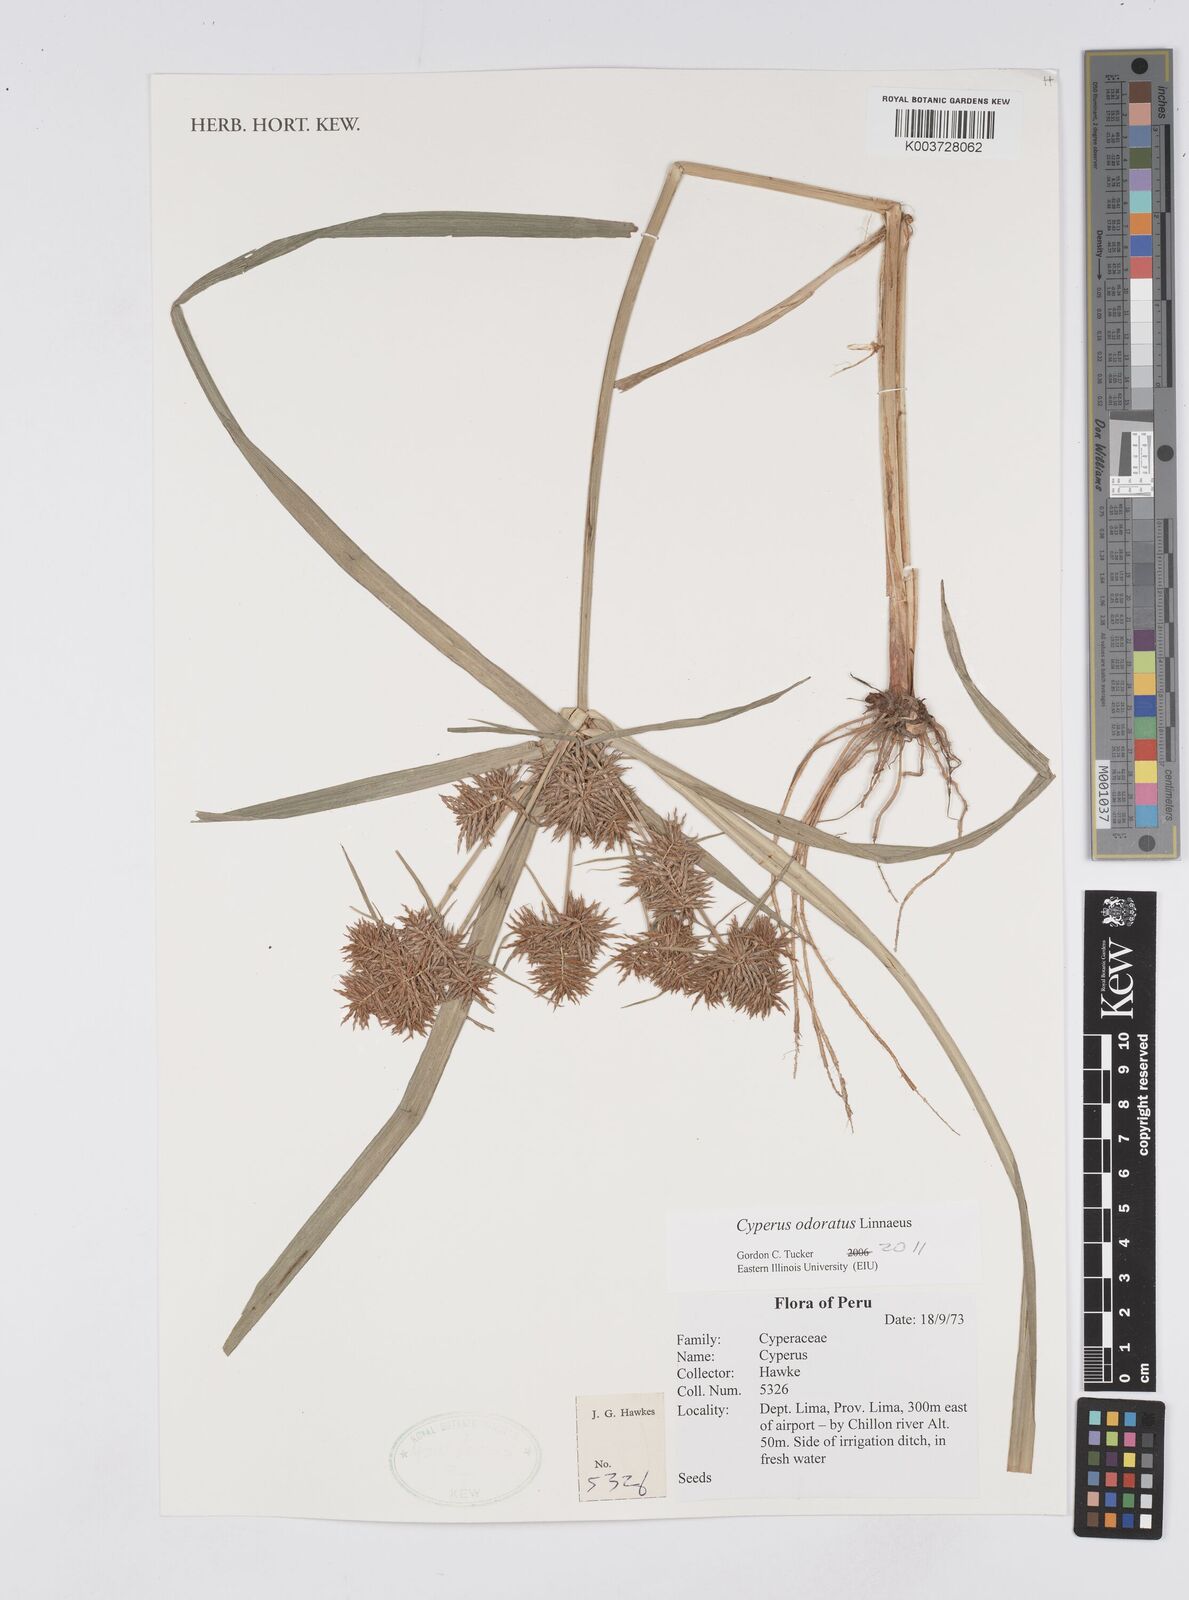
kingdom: Plantae
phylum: Tracheophyta
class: Liliopsida
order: Poales
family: Cyperaceae
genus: Cyperus
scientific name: Cyperus odoratus
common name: Fragrant flatsedge
